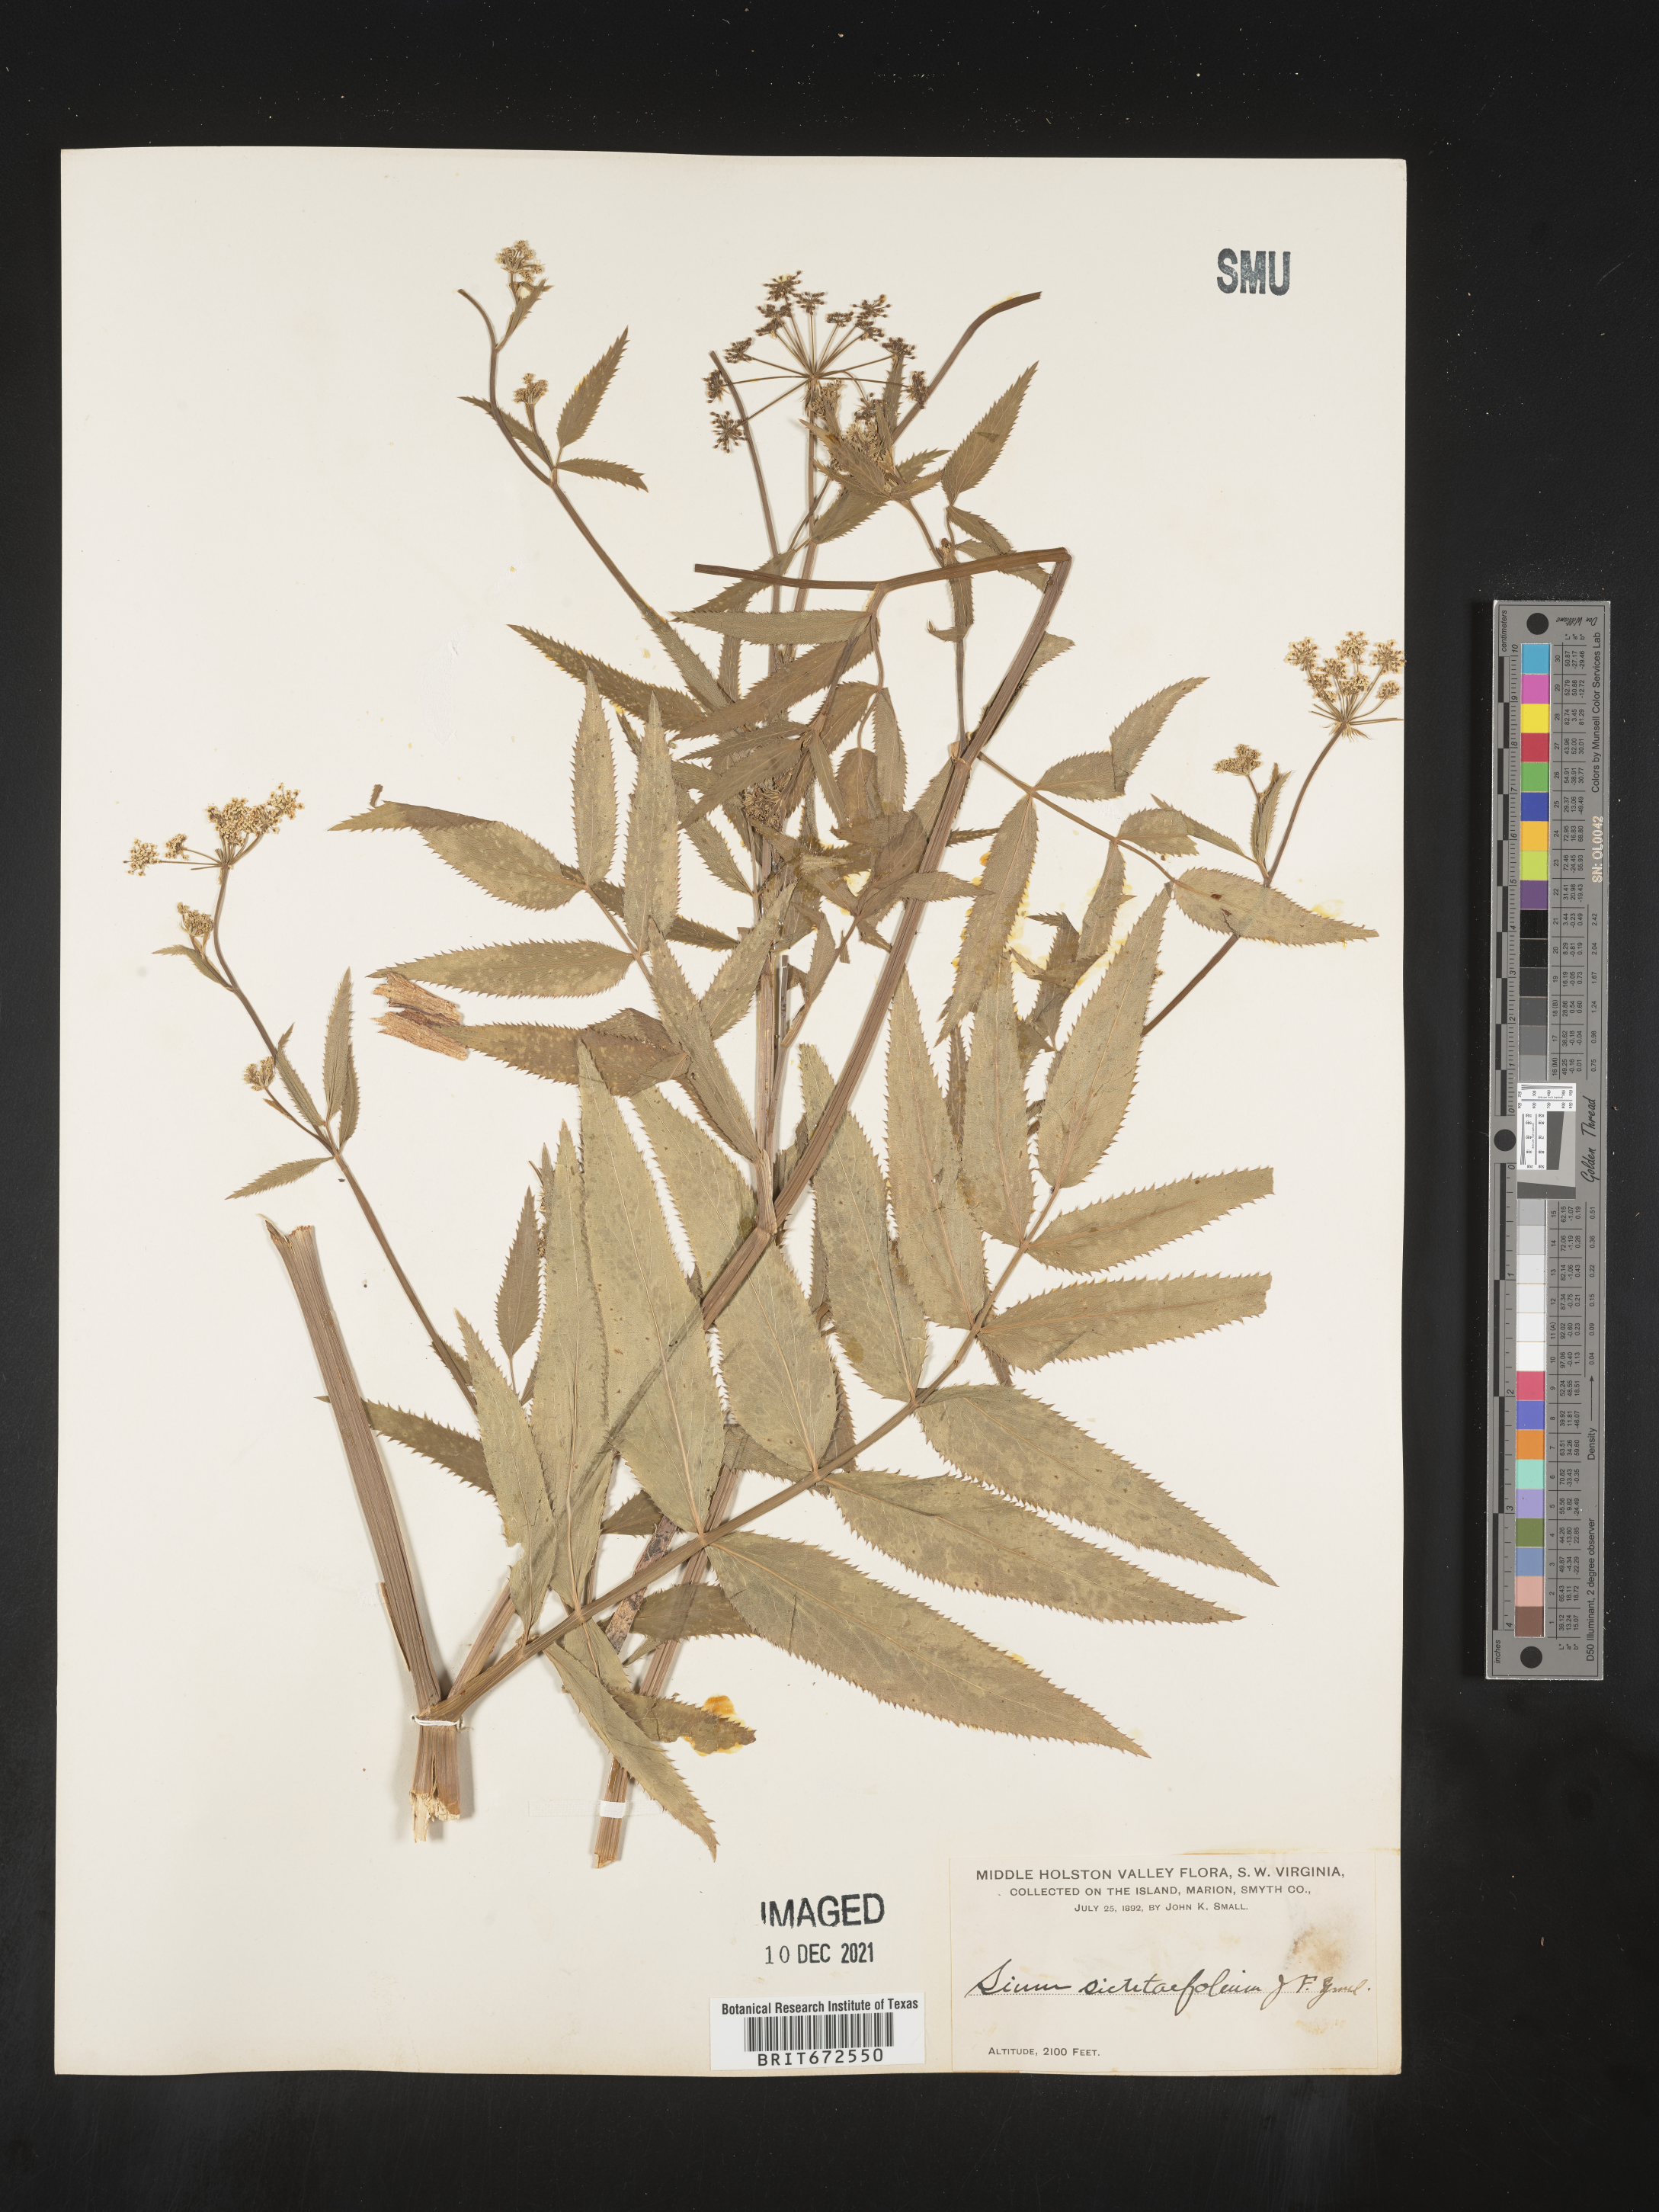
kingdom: Plantae
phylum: Tracheophyta
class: Magnoliopsida
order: Apiales
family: Apiaceae
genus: Sium
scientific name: Sium suave
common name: Hemlock water-parsnip
